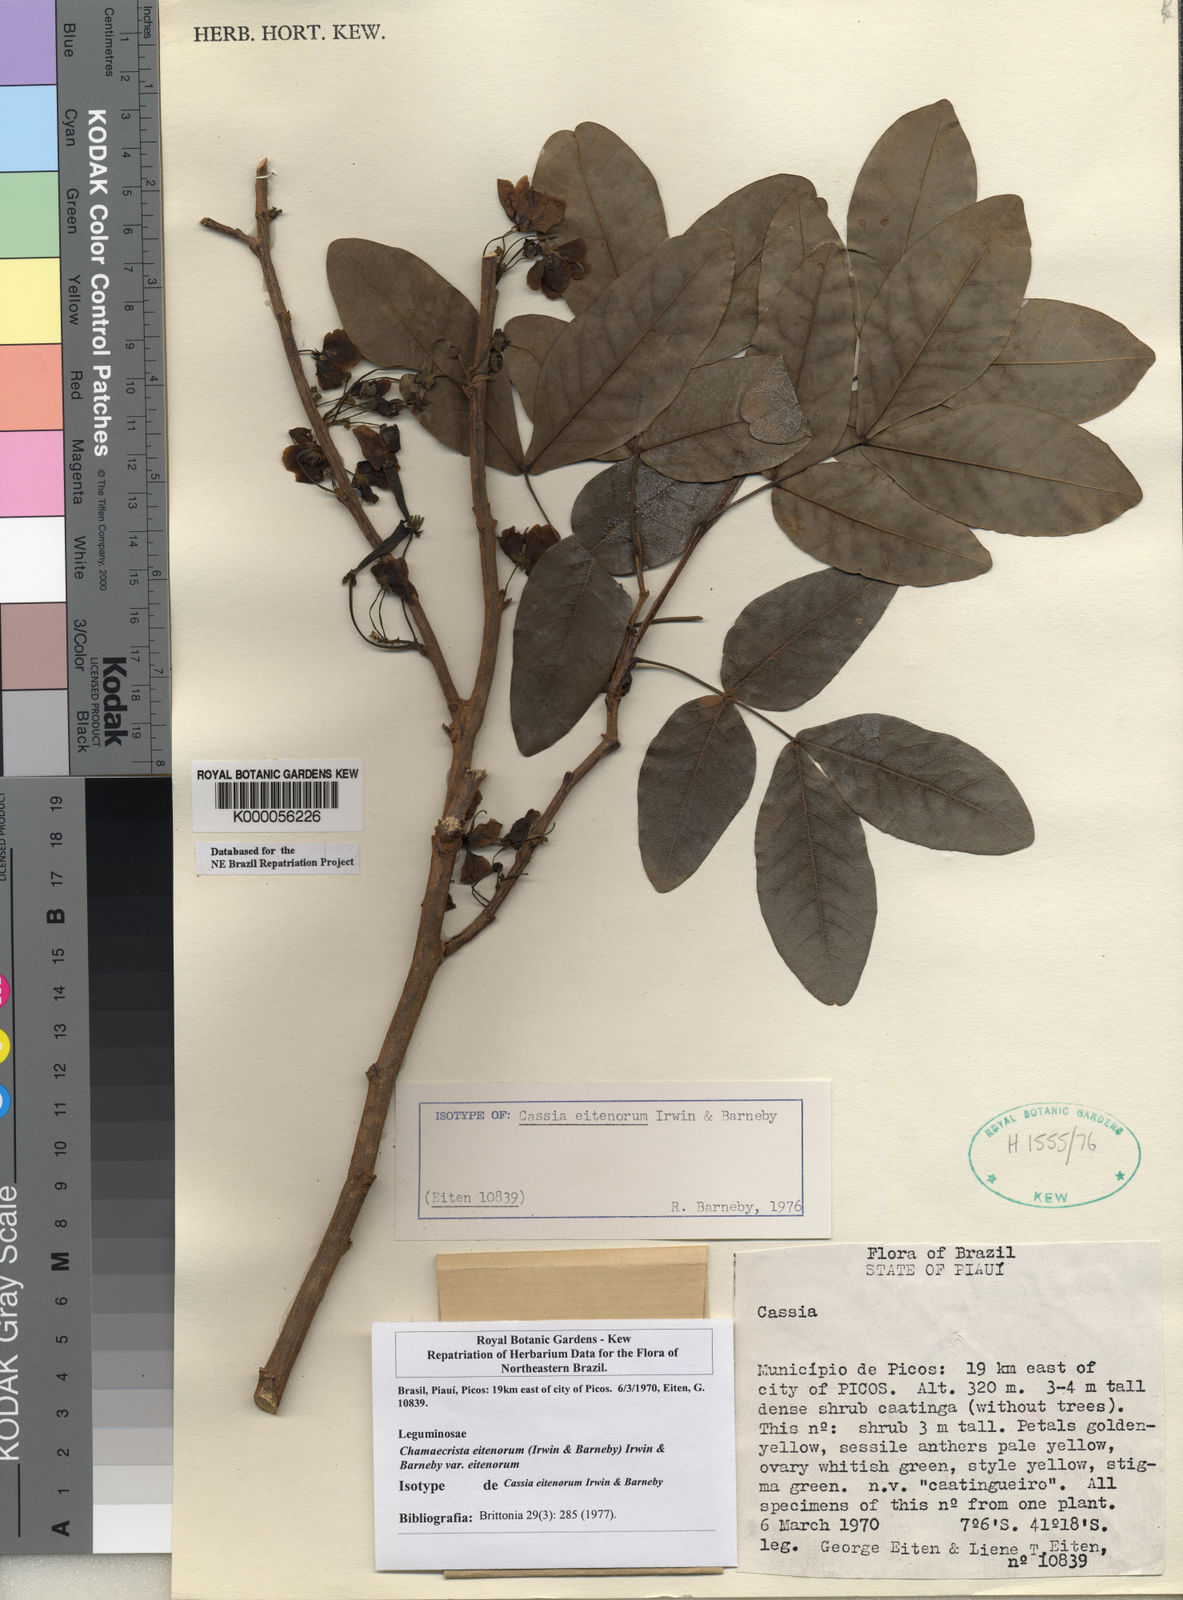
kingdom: Plantae
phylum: Tracheophyta
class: Magnoliopsida
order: Fabales
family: Fabaceae
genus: Chamaecrista
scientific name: Chamaecrista eitenorum
